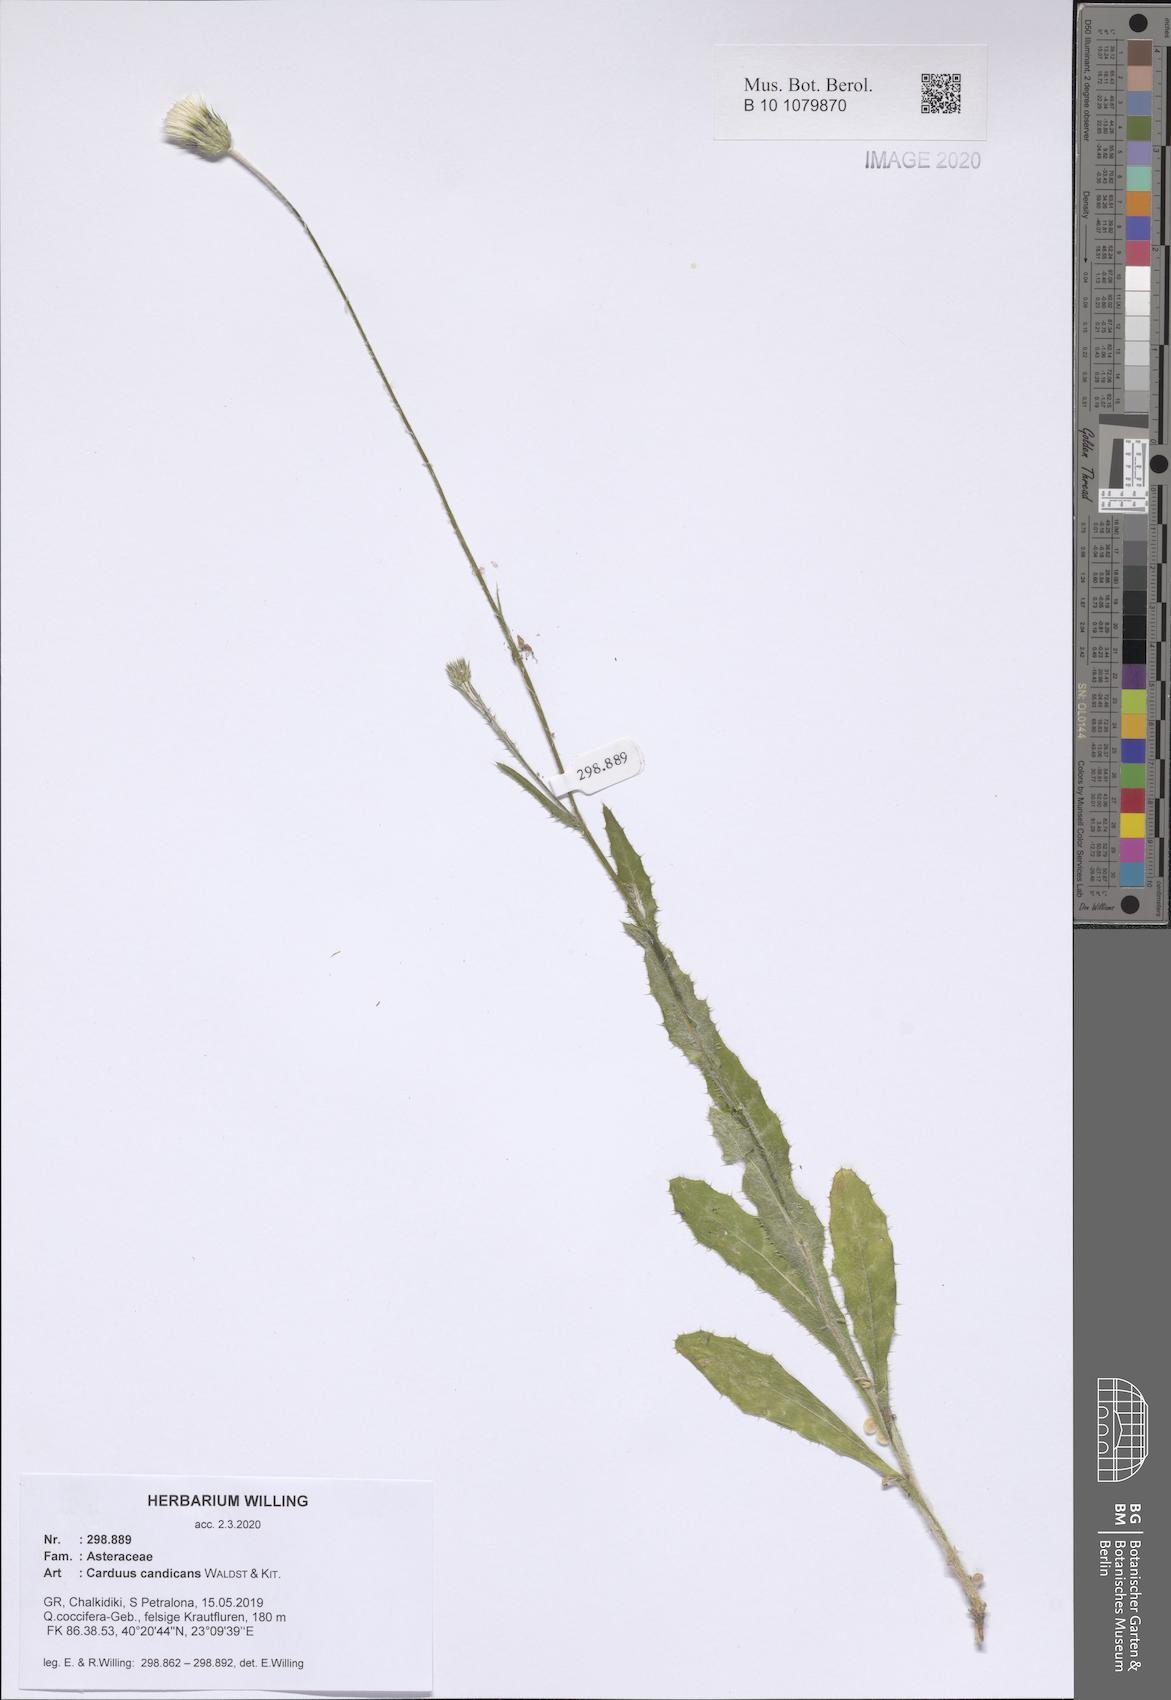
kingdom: Plantae
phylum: Tracheophyta
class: Magnoliopsida
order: Asterales
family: Asteraceae
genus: Carduus
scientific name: Carduus candicans
